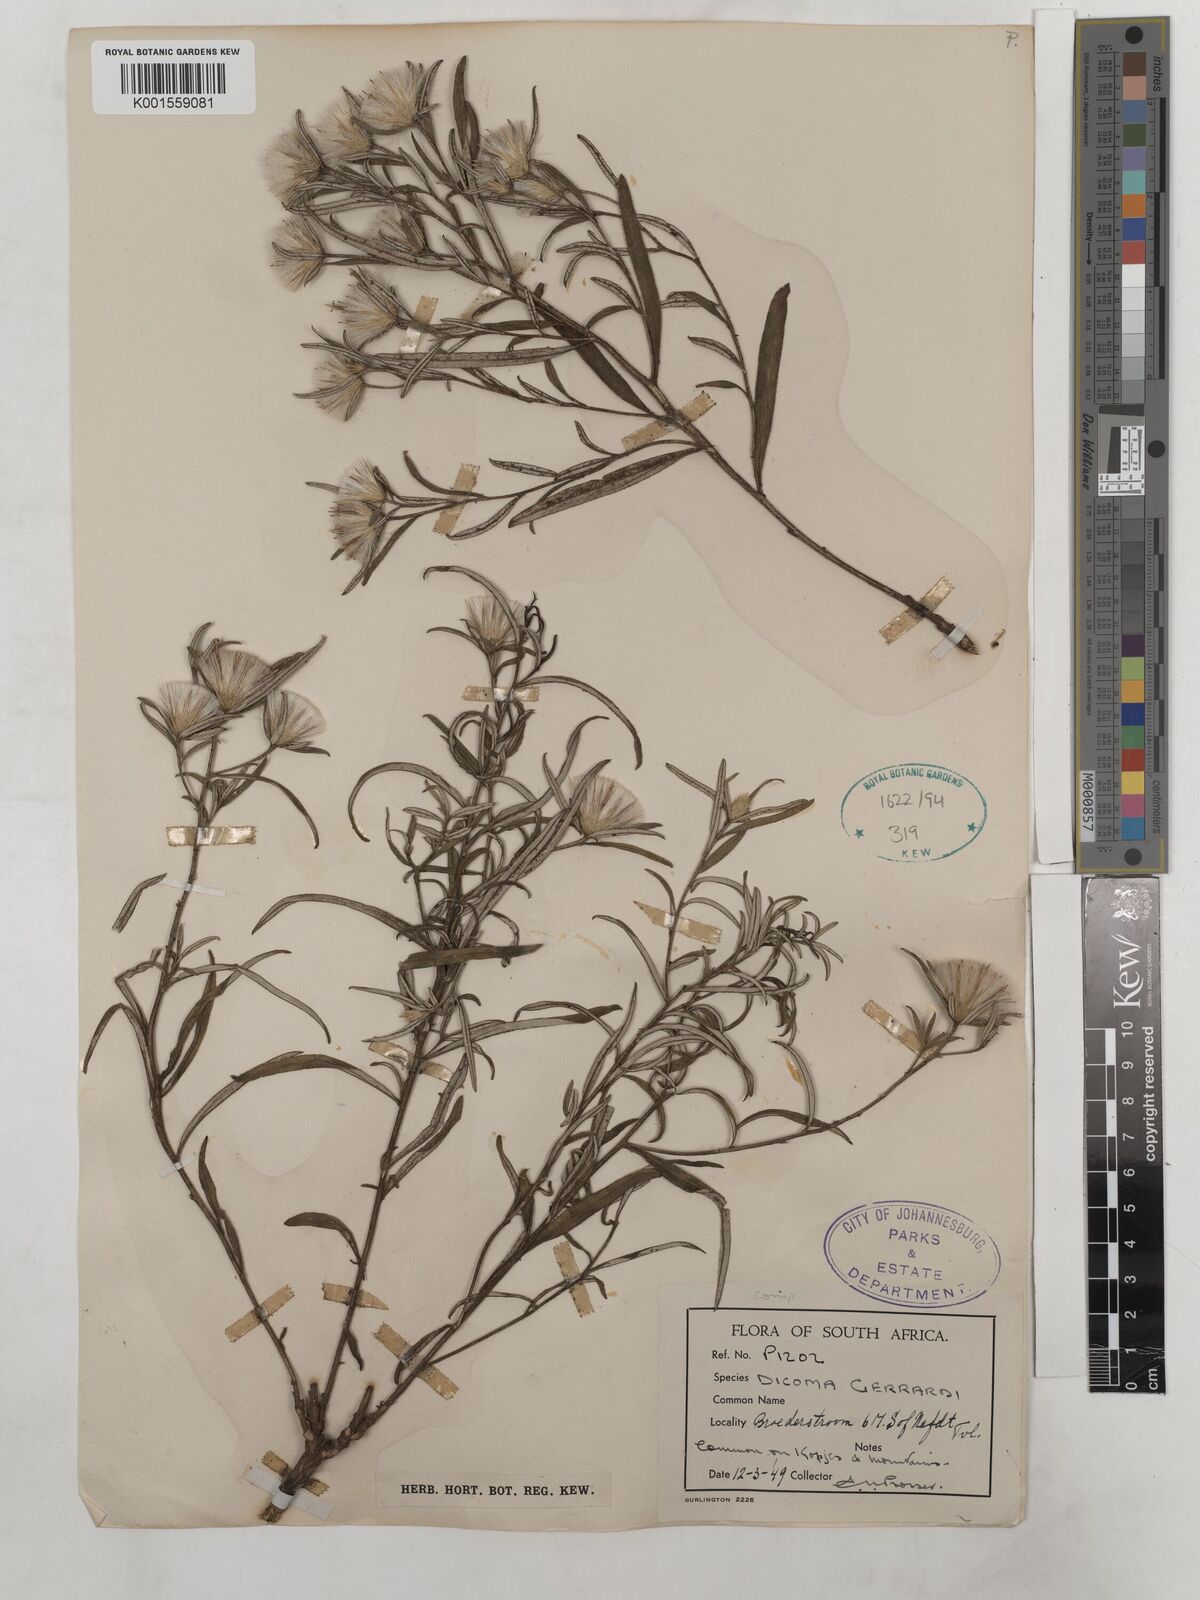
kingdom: Plantae
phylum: Tracheophyta
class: Magnoliopsida
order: Asterales
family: Asteraceae
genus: Dicoma
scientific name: Dicoma anomala
